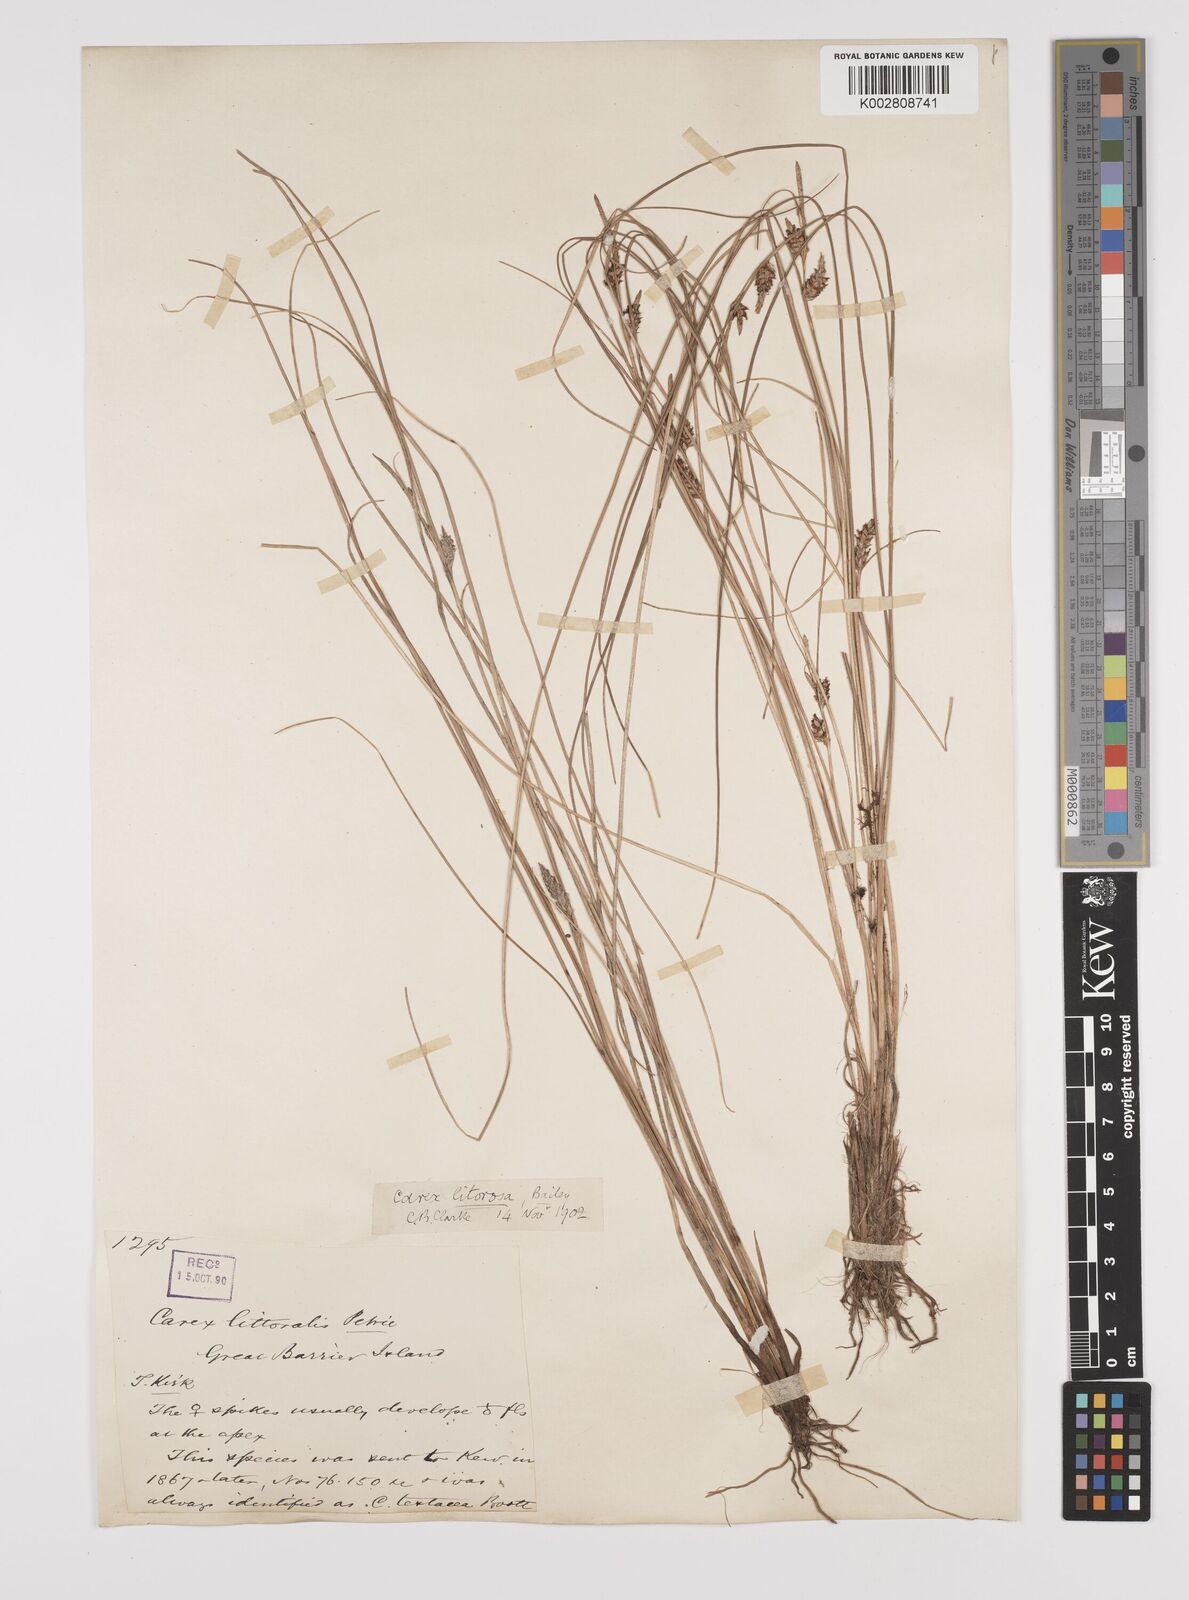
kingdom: Plantae
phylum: Tracheophyta
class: Liliopsida
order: Poales
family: Cyperaceae
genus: Carex
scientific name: Carex litorosa
